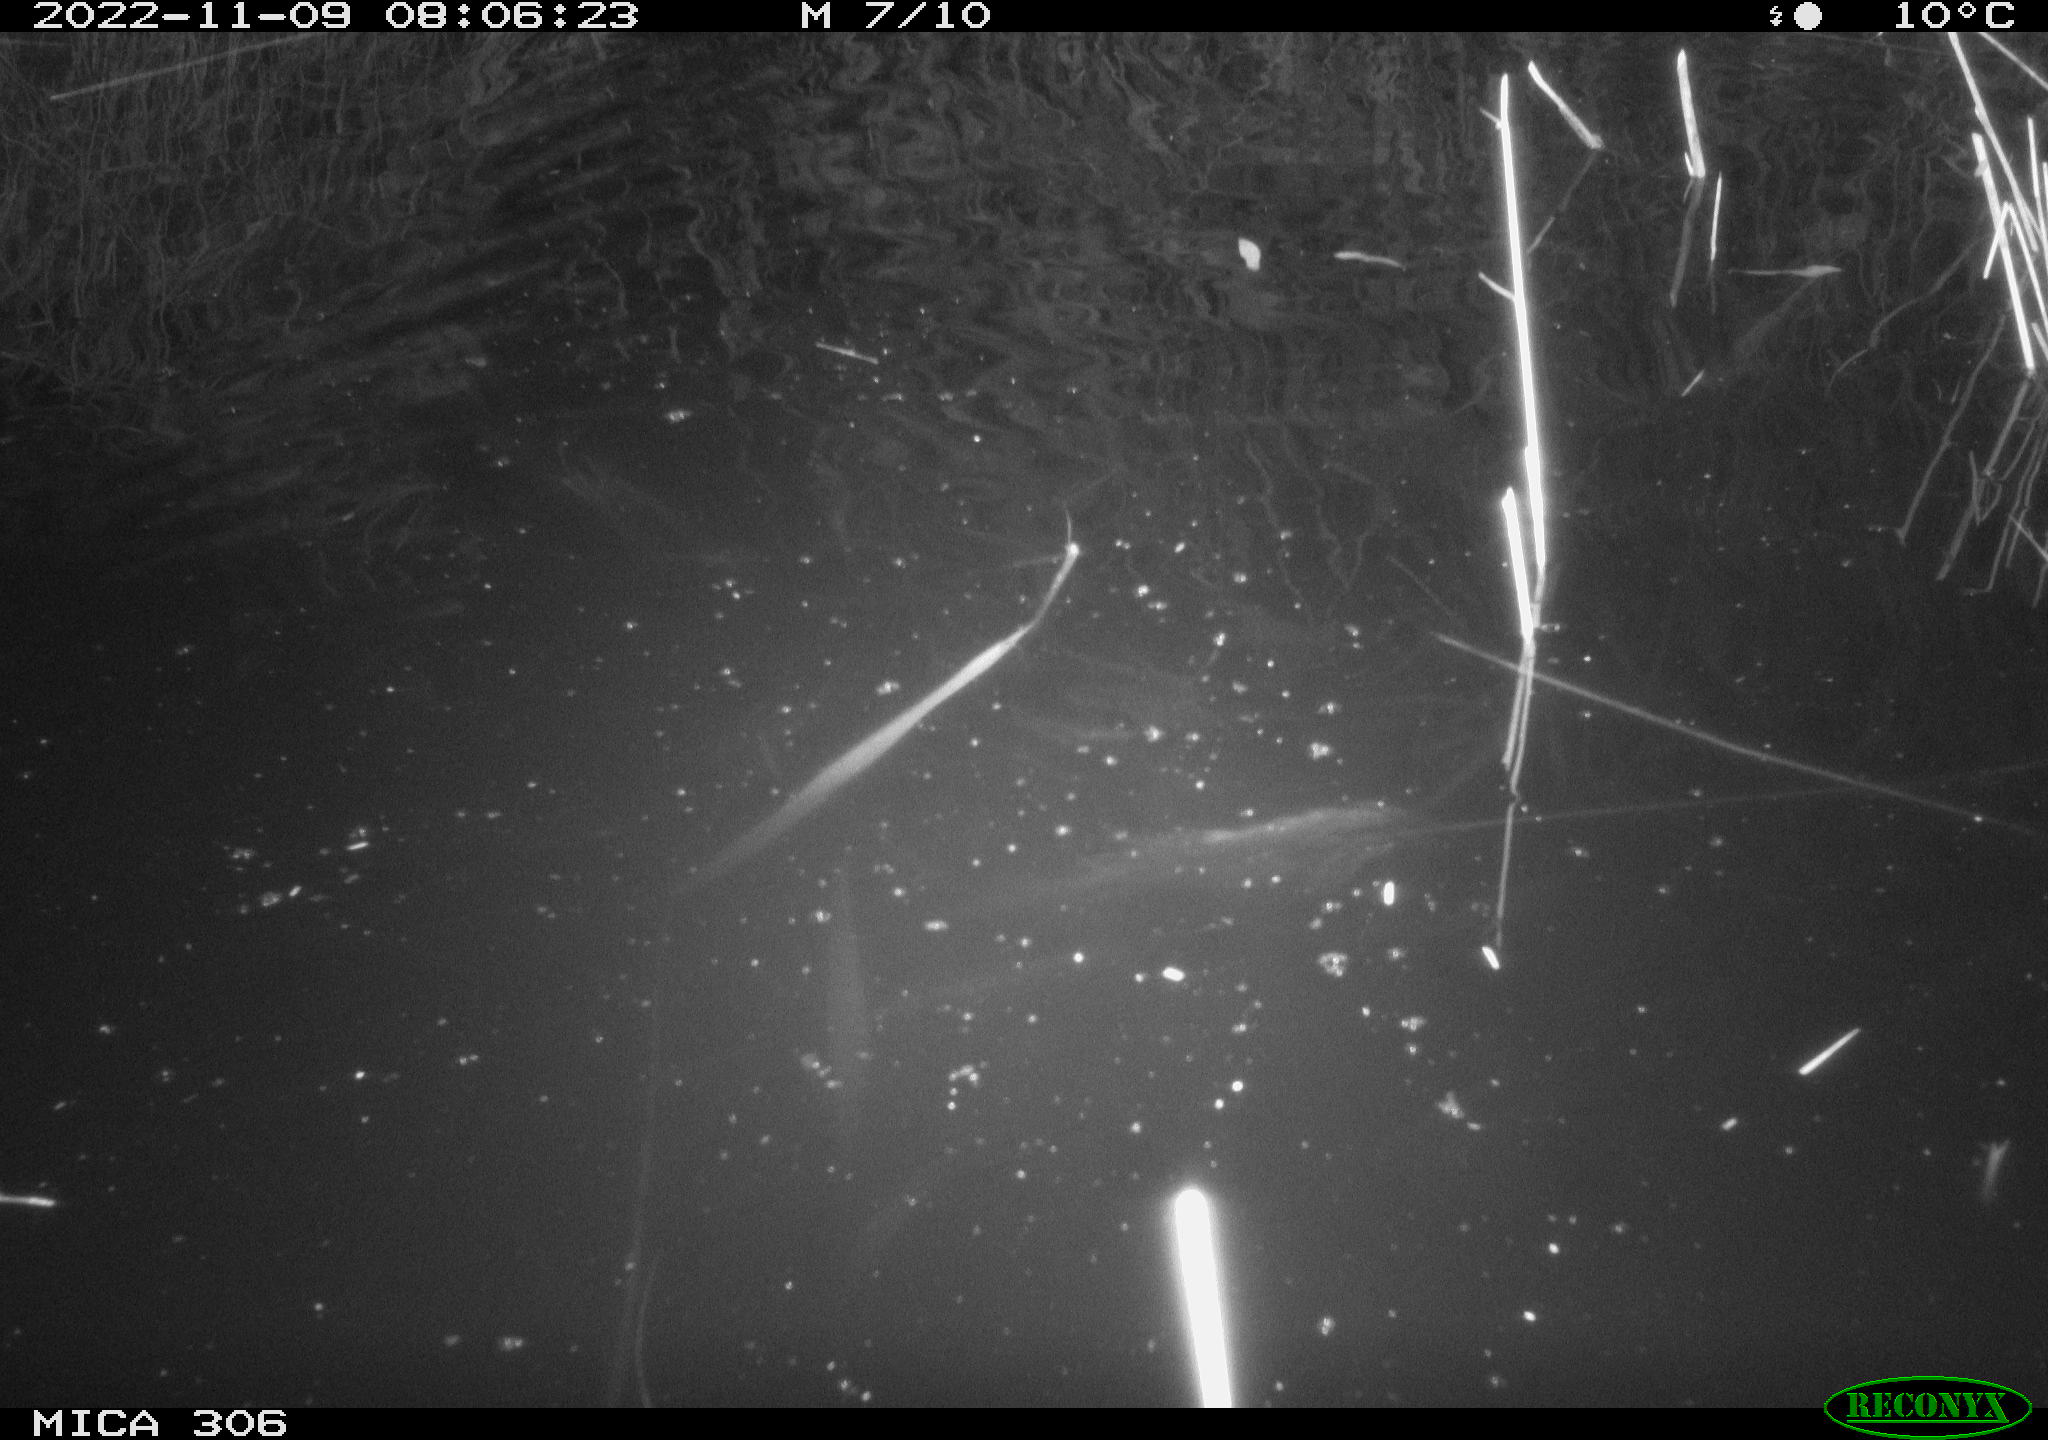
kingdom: Animalia
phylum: Chordata
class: Mammalia
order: Rodentia
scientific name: Rodentia
